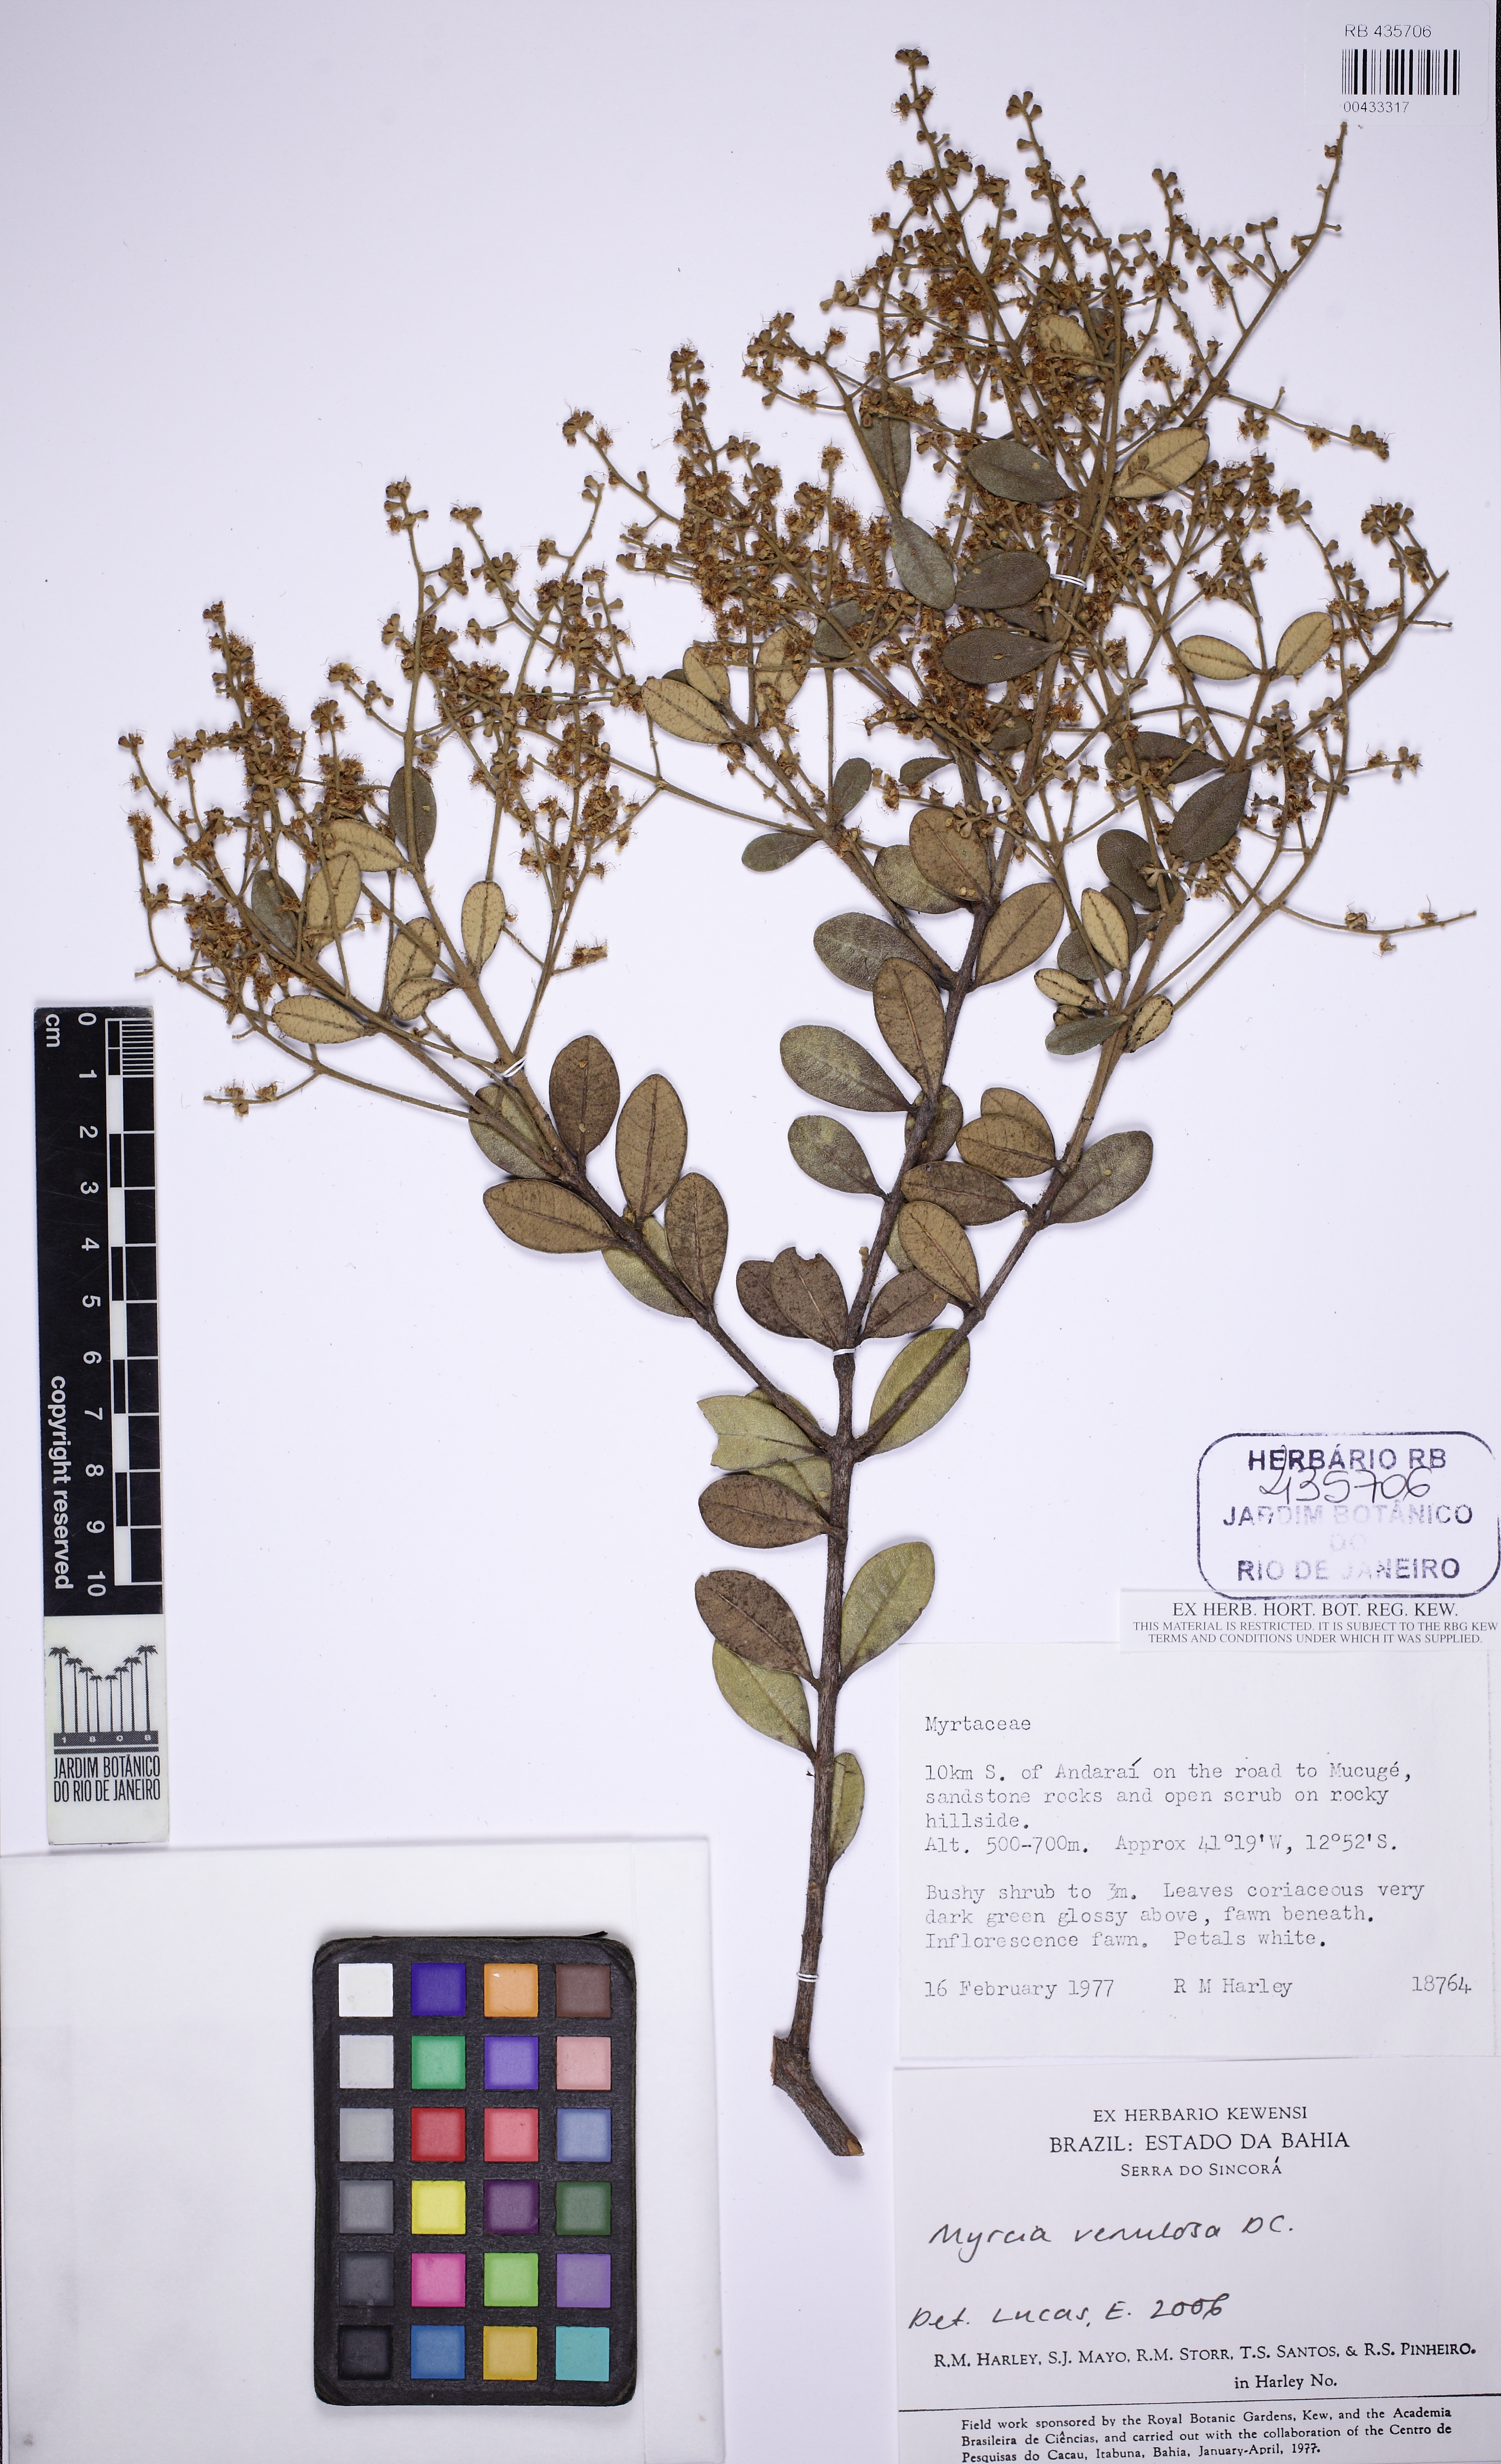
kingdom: Plantae
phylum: Tracheophyta
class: Magnoliopsida
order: Myrtales
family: Myrtaceae
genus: Myrcia
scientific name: Myrcia blanchetiana
